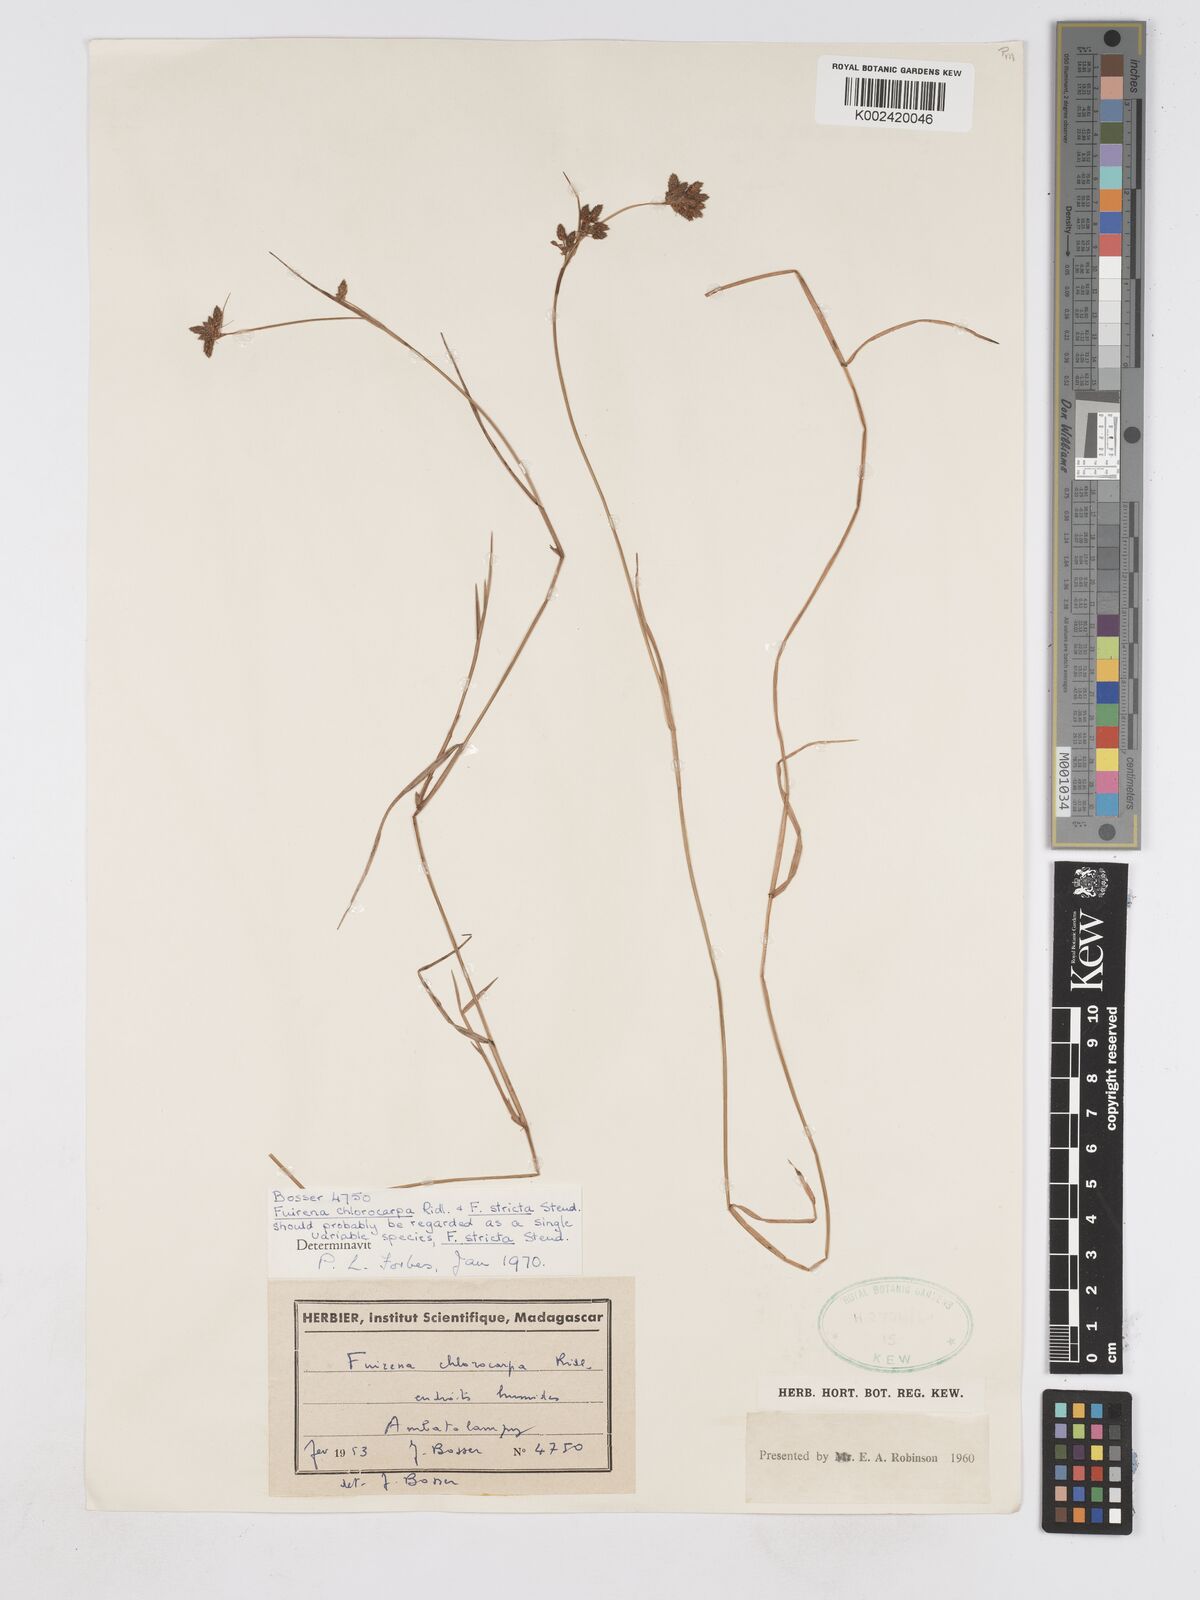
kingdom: Plantae
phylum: Tracheophyta
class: Liliopsida
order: Poales
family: Cyperaceae
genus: Fuirena
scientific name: Fuirena stricta
